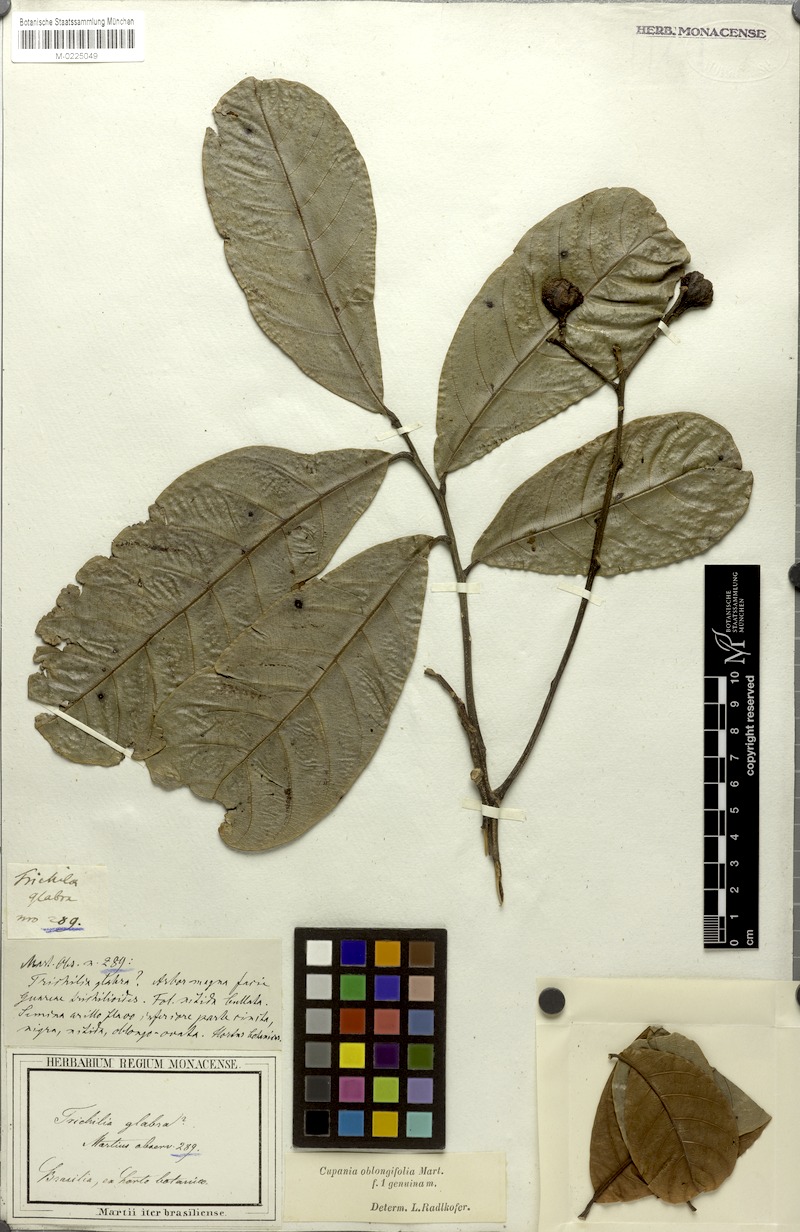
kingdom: Plantae
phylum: Tracheophyta
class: Magnoliopsida
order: Sapindales
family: Sapindaceae
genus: Cupania
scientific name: Cupania oblongifolia
